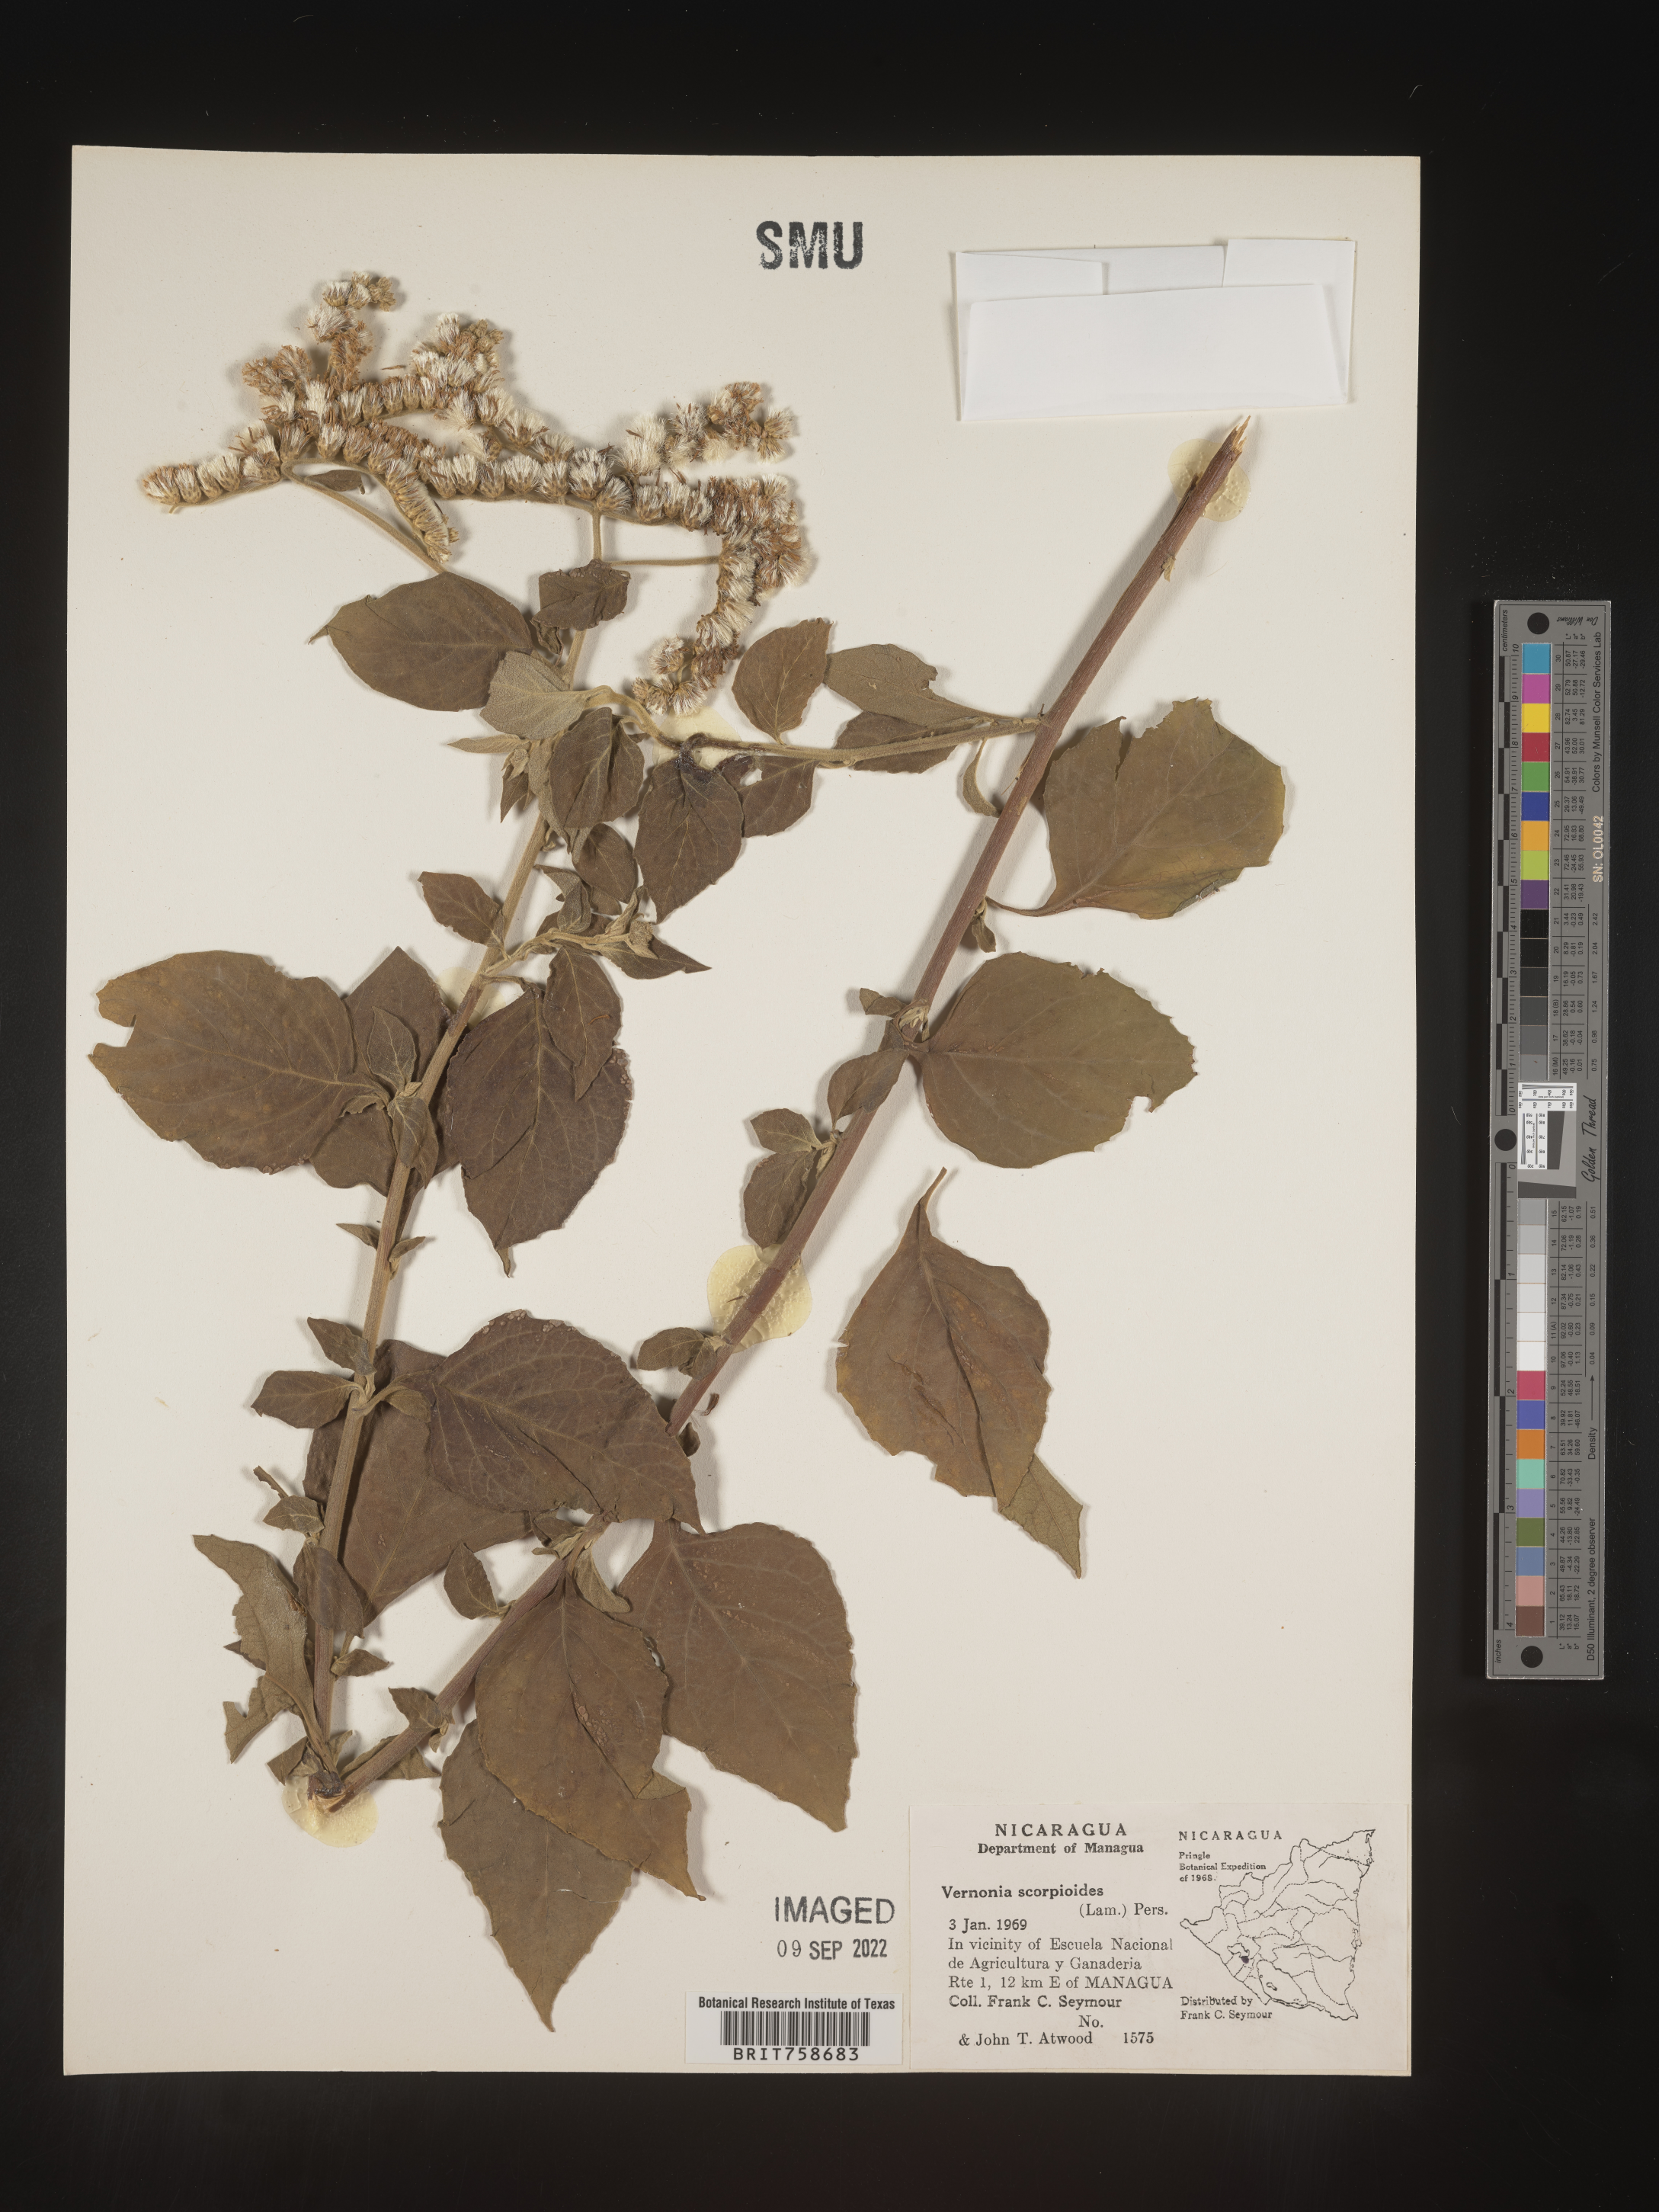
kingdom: Plantae
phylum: Tracheophyta
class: Magnoliopsida
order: Asterales
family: Asteraceae
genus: Vernonia
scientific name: Vernonia
